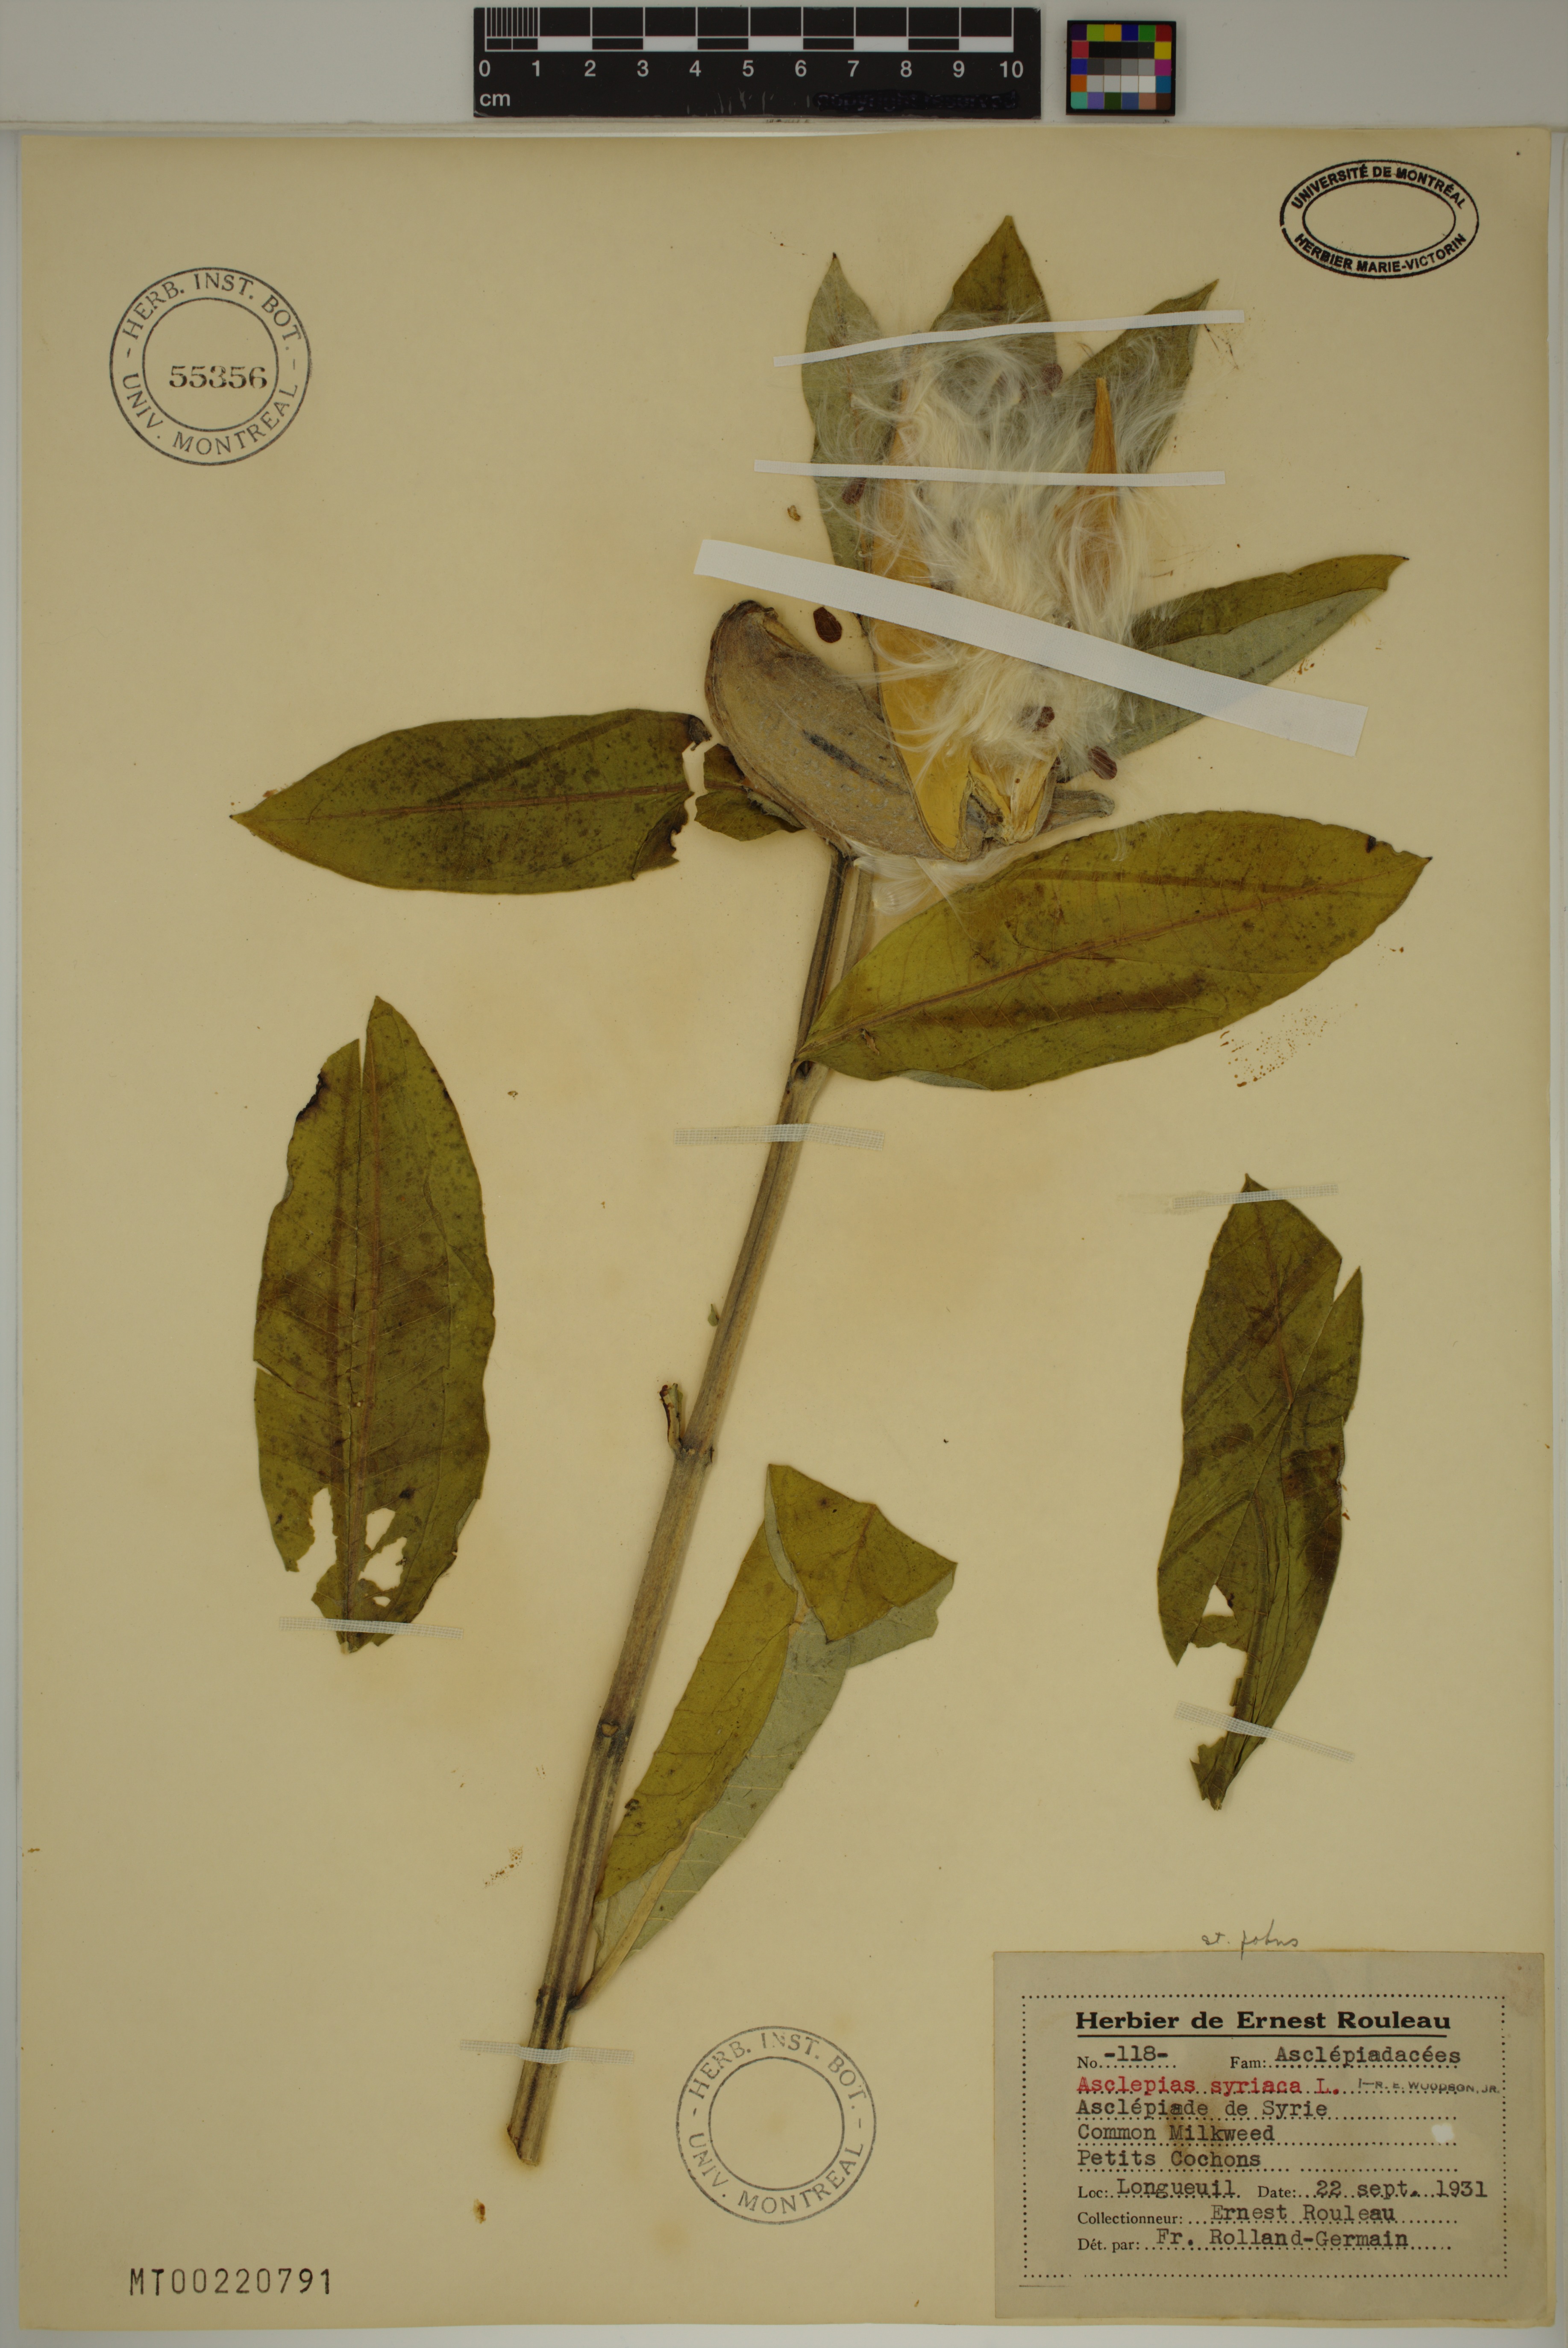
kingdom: Plantae
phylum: Tracheophyta
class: Magnoliopsida
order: Gentianales
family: Apocynaceae
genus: Asclepias
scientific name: Asclepias syriaca
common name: Common milkweed
